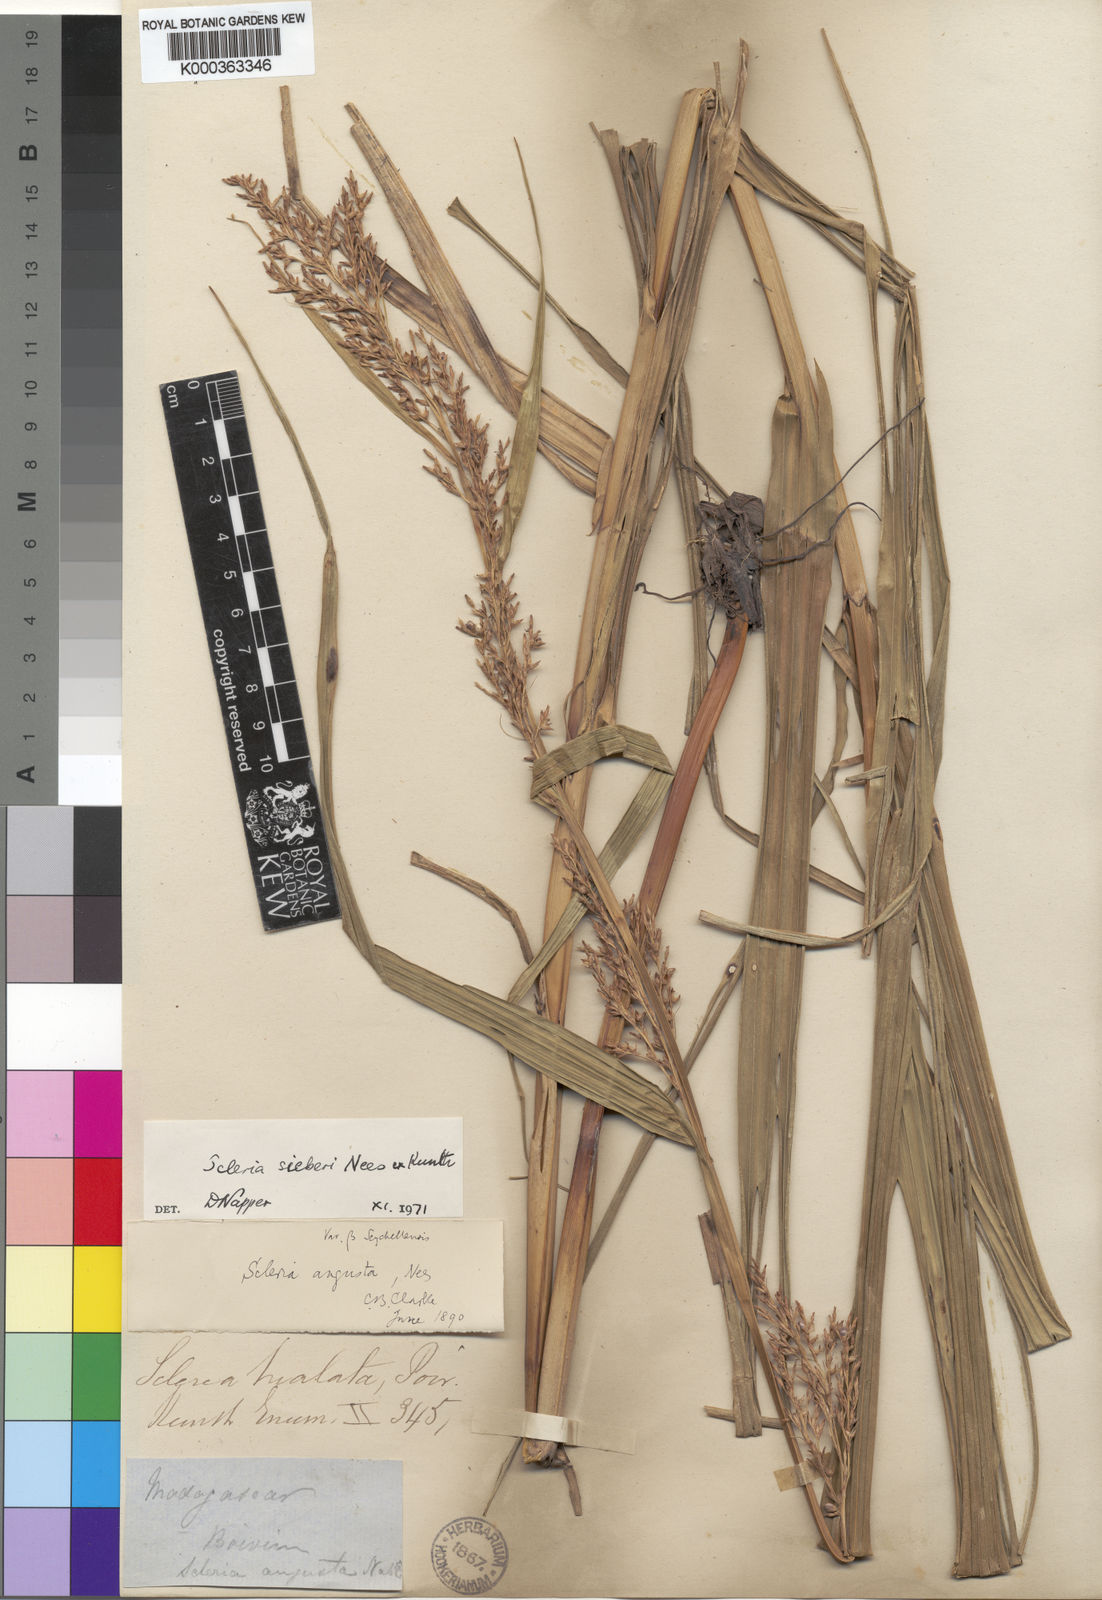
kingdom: Plantae
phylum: Tracheophyta
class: Liliopsida
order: Poales
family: Cyperaceae
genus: Scleria
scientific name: Scleria gaertneri
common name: Cortadera blanca
